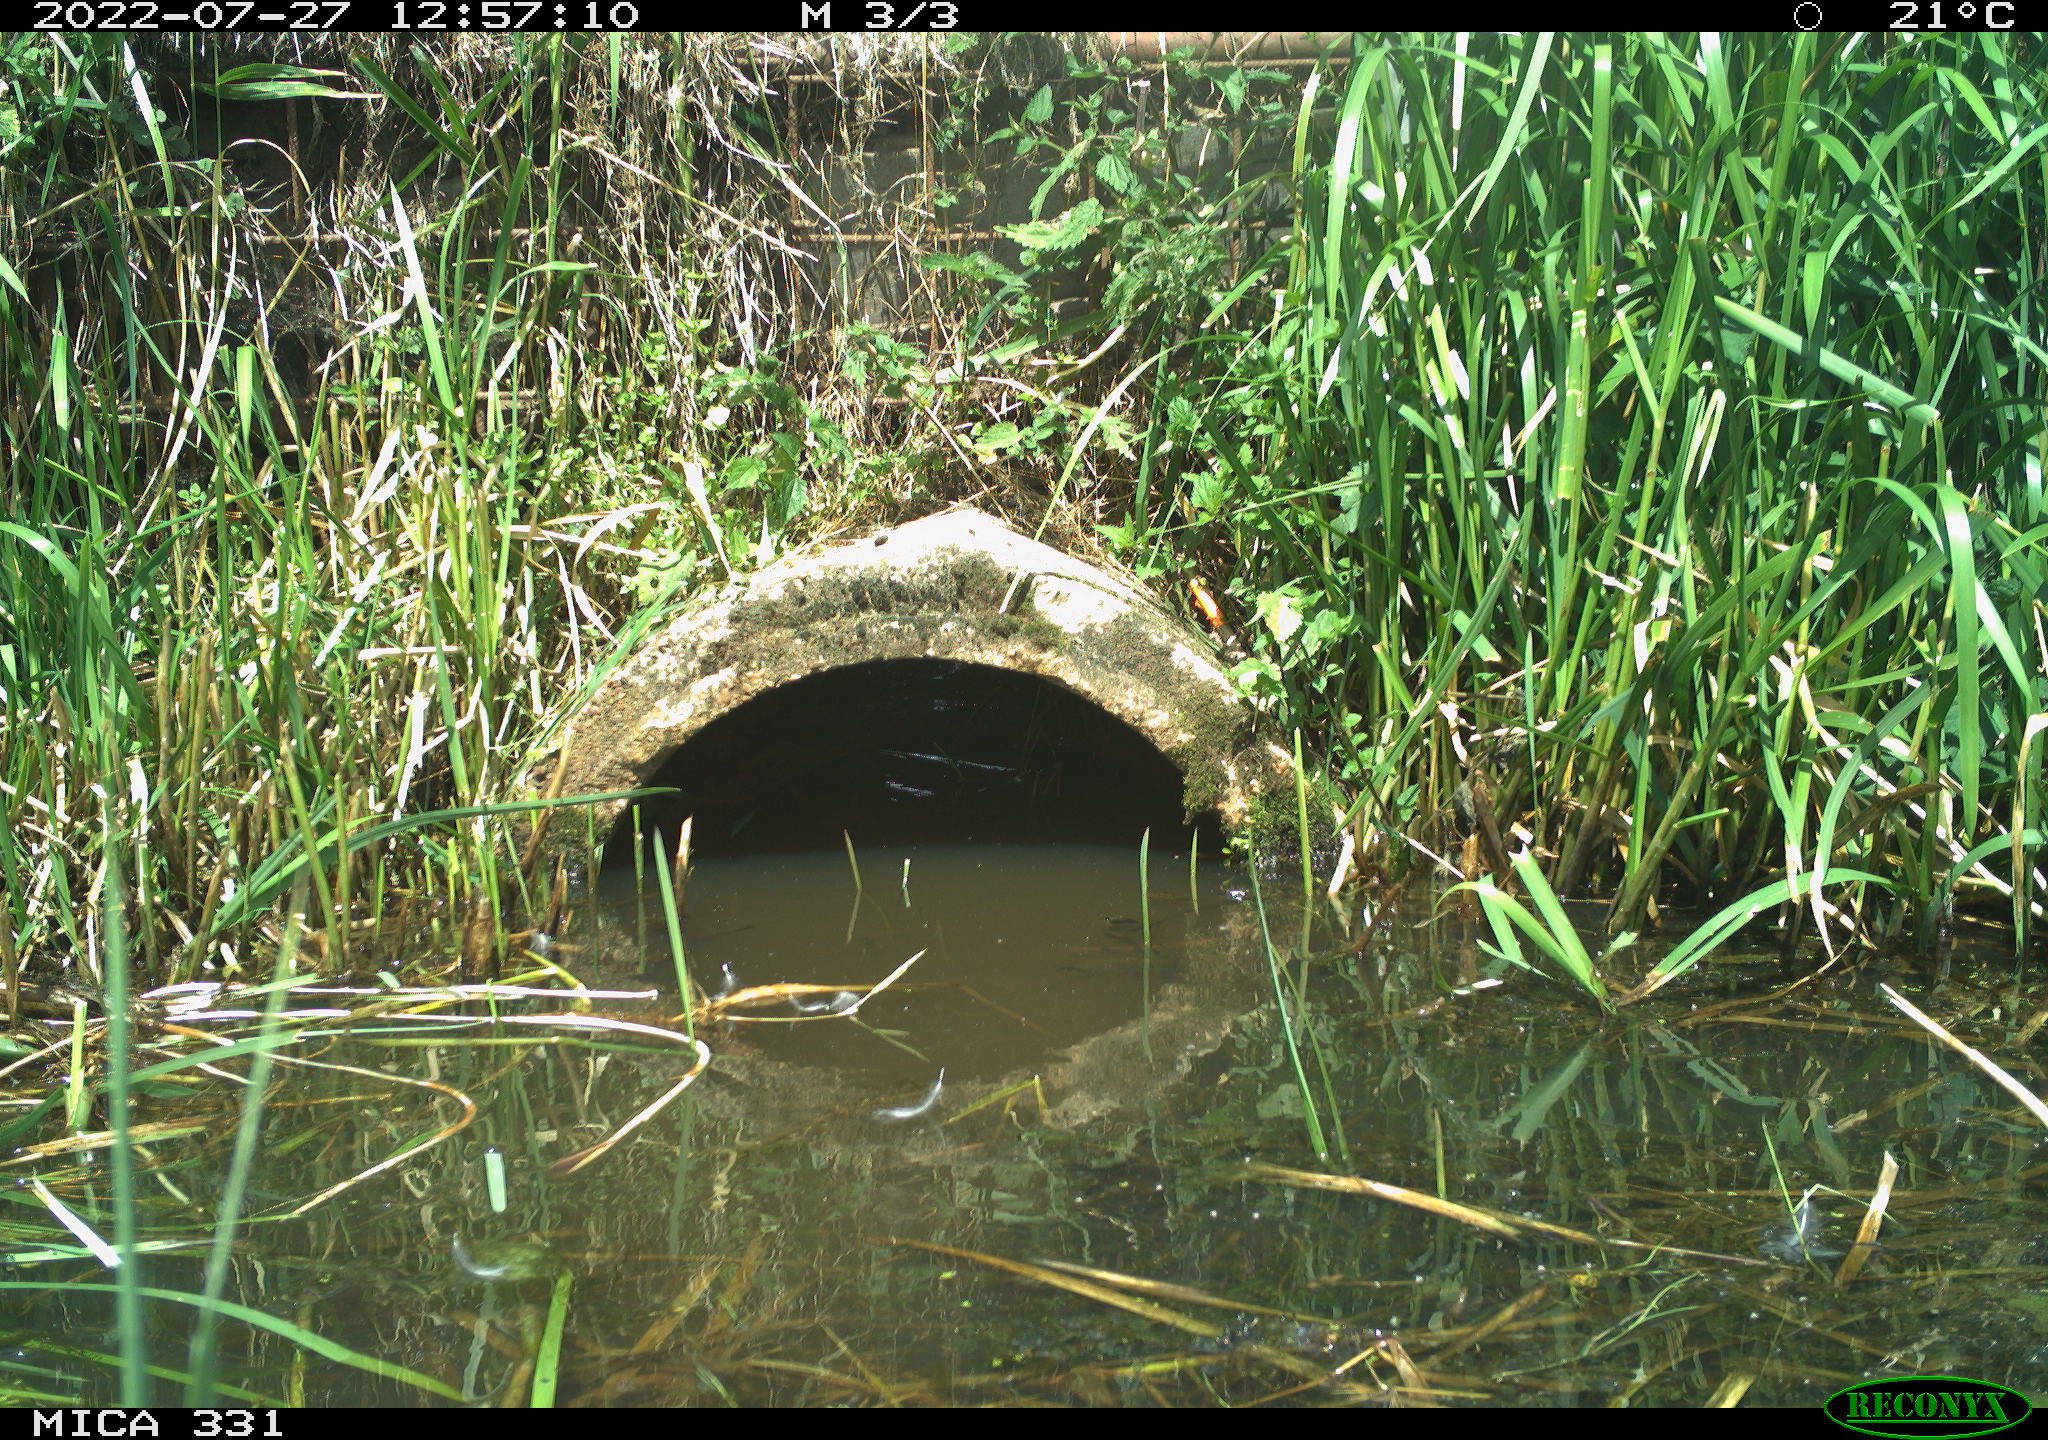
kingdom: Animalia
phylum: Chordata
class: Aves
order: Gruiformes
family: Rallidae
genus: Fulica
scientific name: Fulica atra
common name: Eurasian coot
